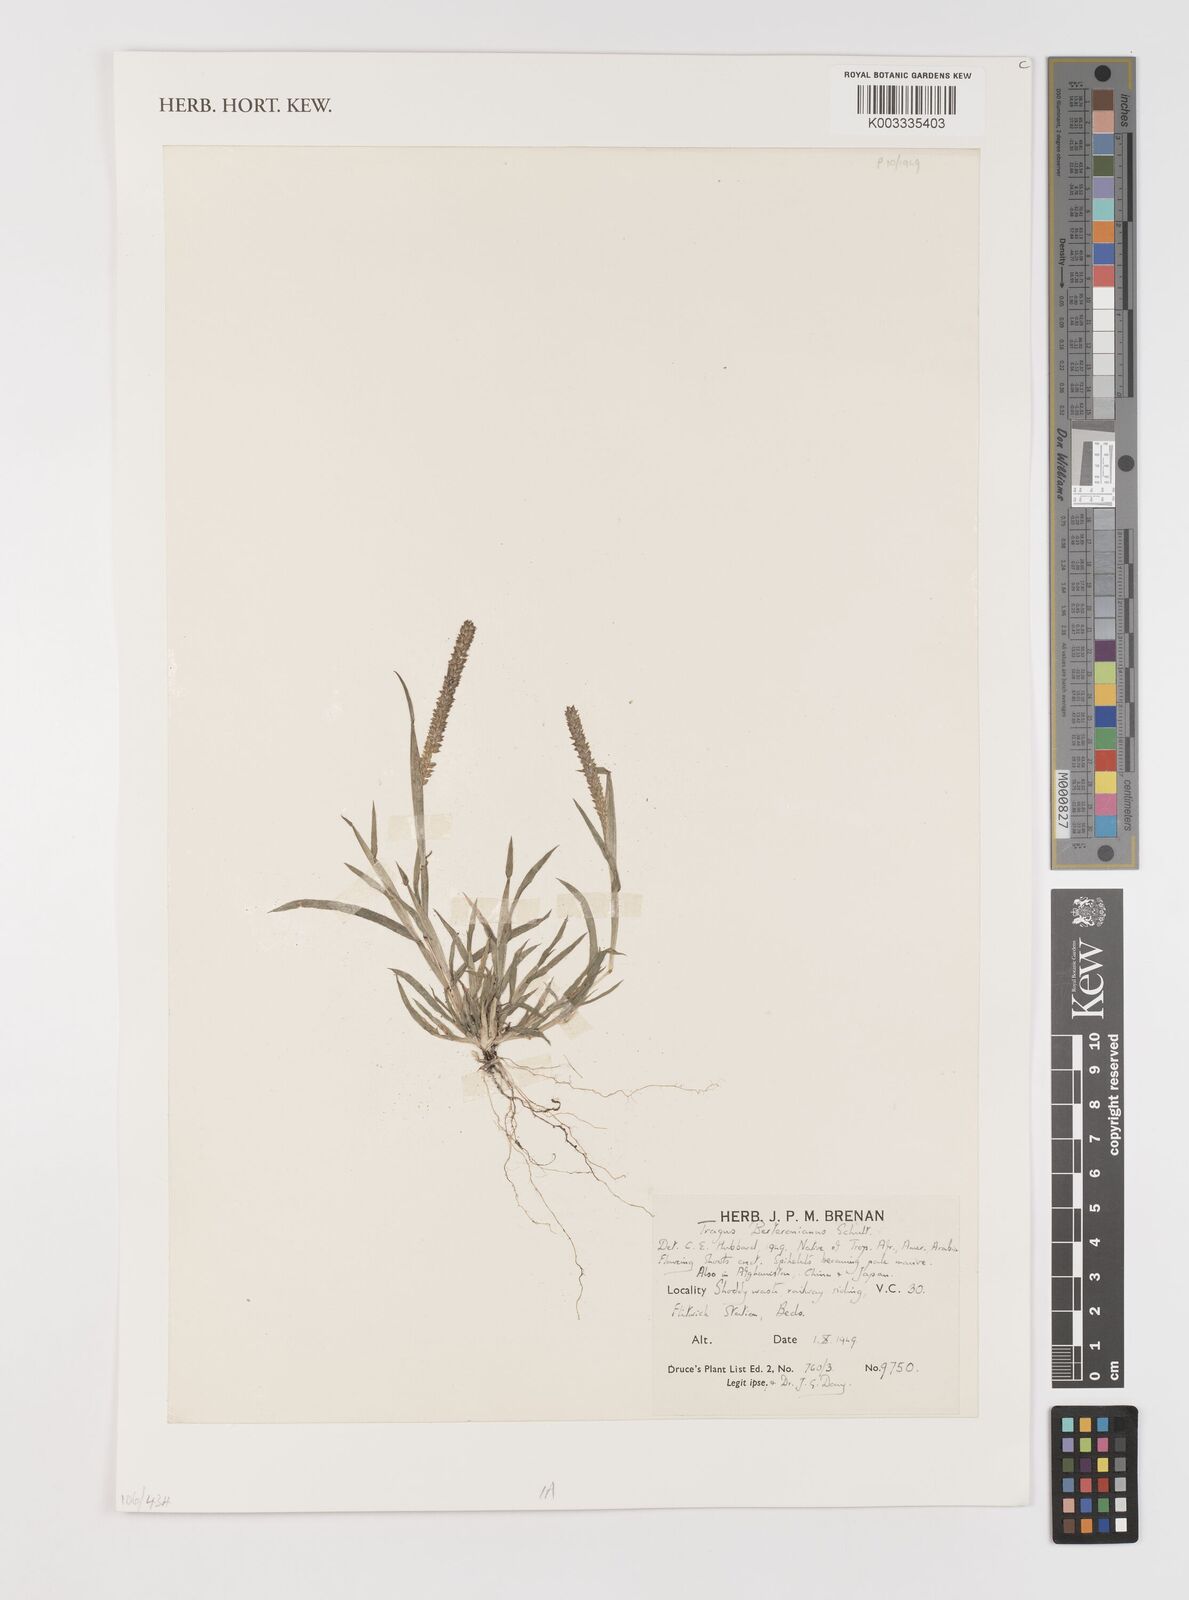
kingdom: Plantae
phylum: Tracheophyta
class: Liliopsida
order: Poales
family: Poaceae
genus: Tragus
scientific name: Tragus berteronianus
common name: African bur-grass
